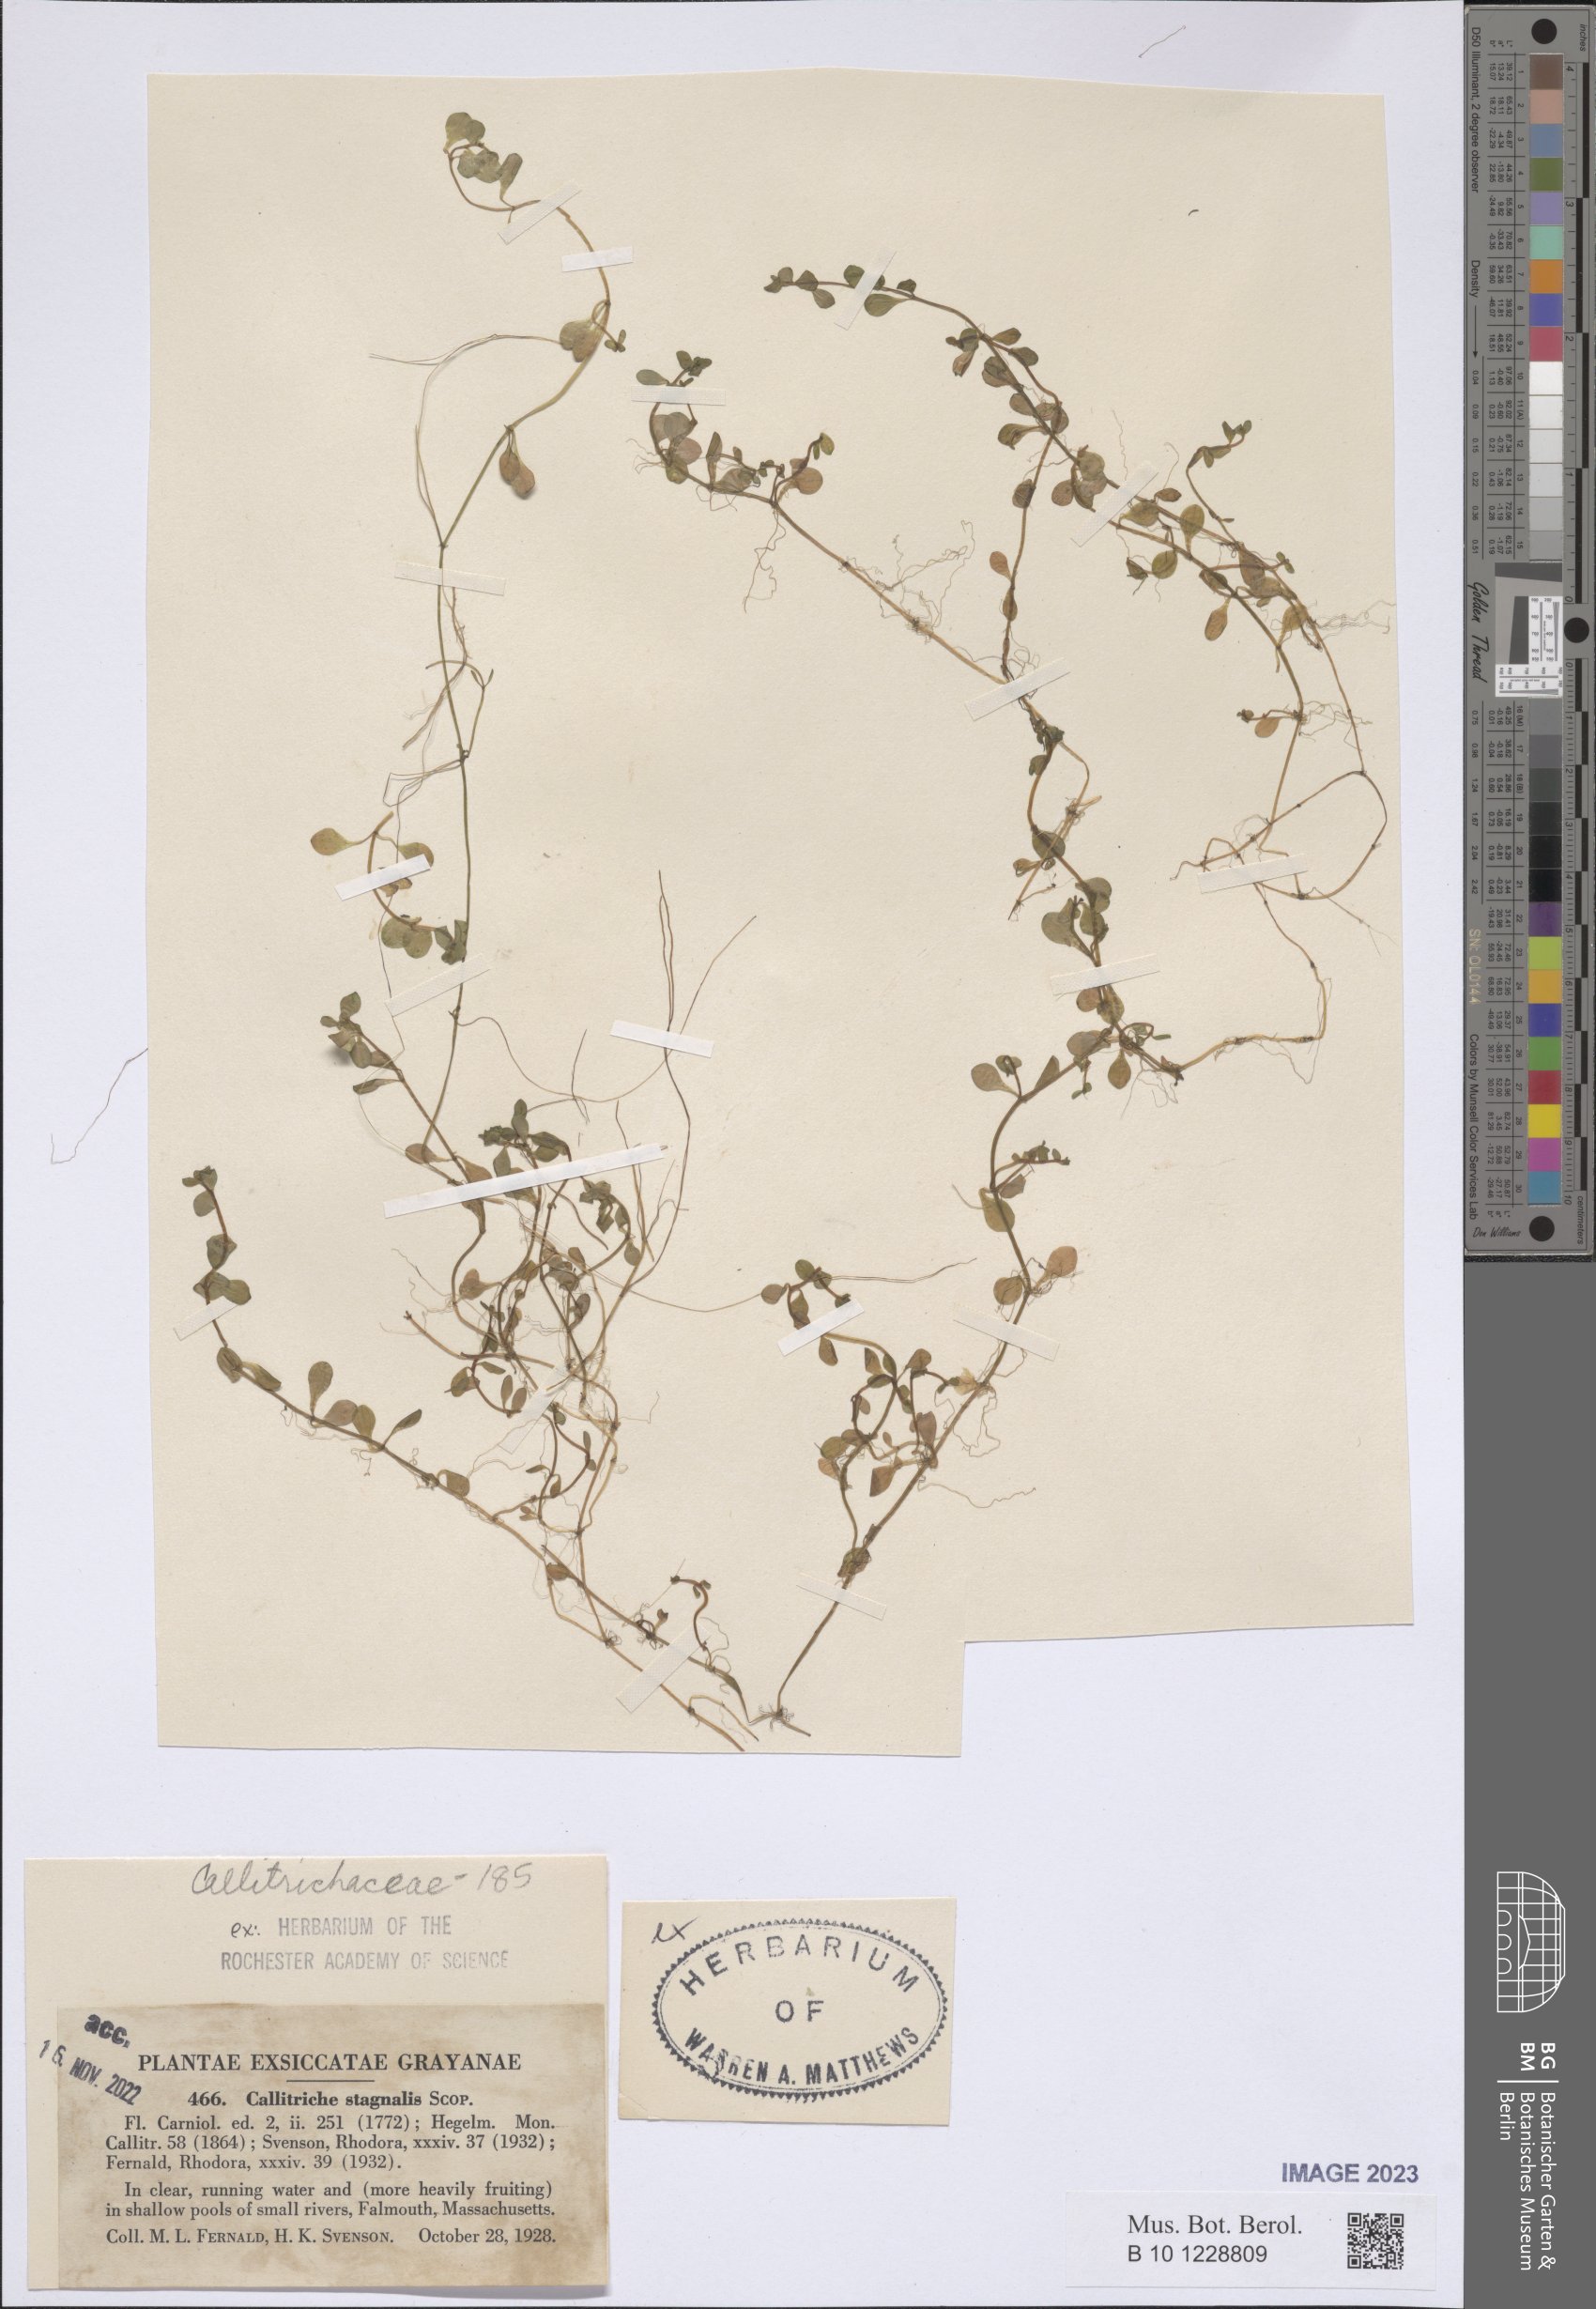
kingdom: Plantae
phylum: Tracheophyta
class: Magnoliopsida
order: Lamiales
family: Plantaginaceae
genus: Callitriche
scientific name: Callitriche stagnalis
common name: Common water-starwort
